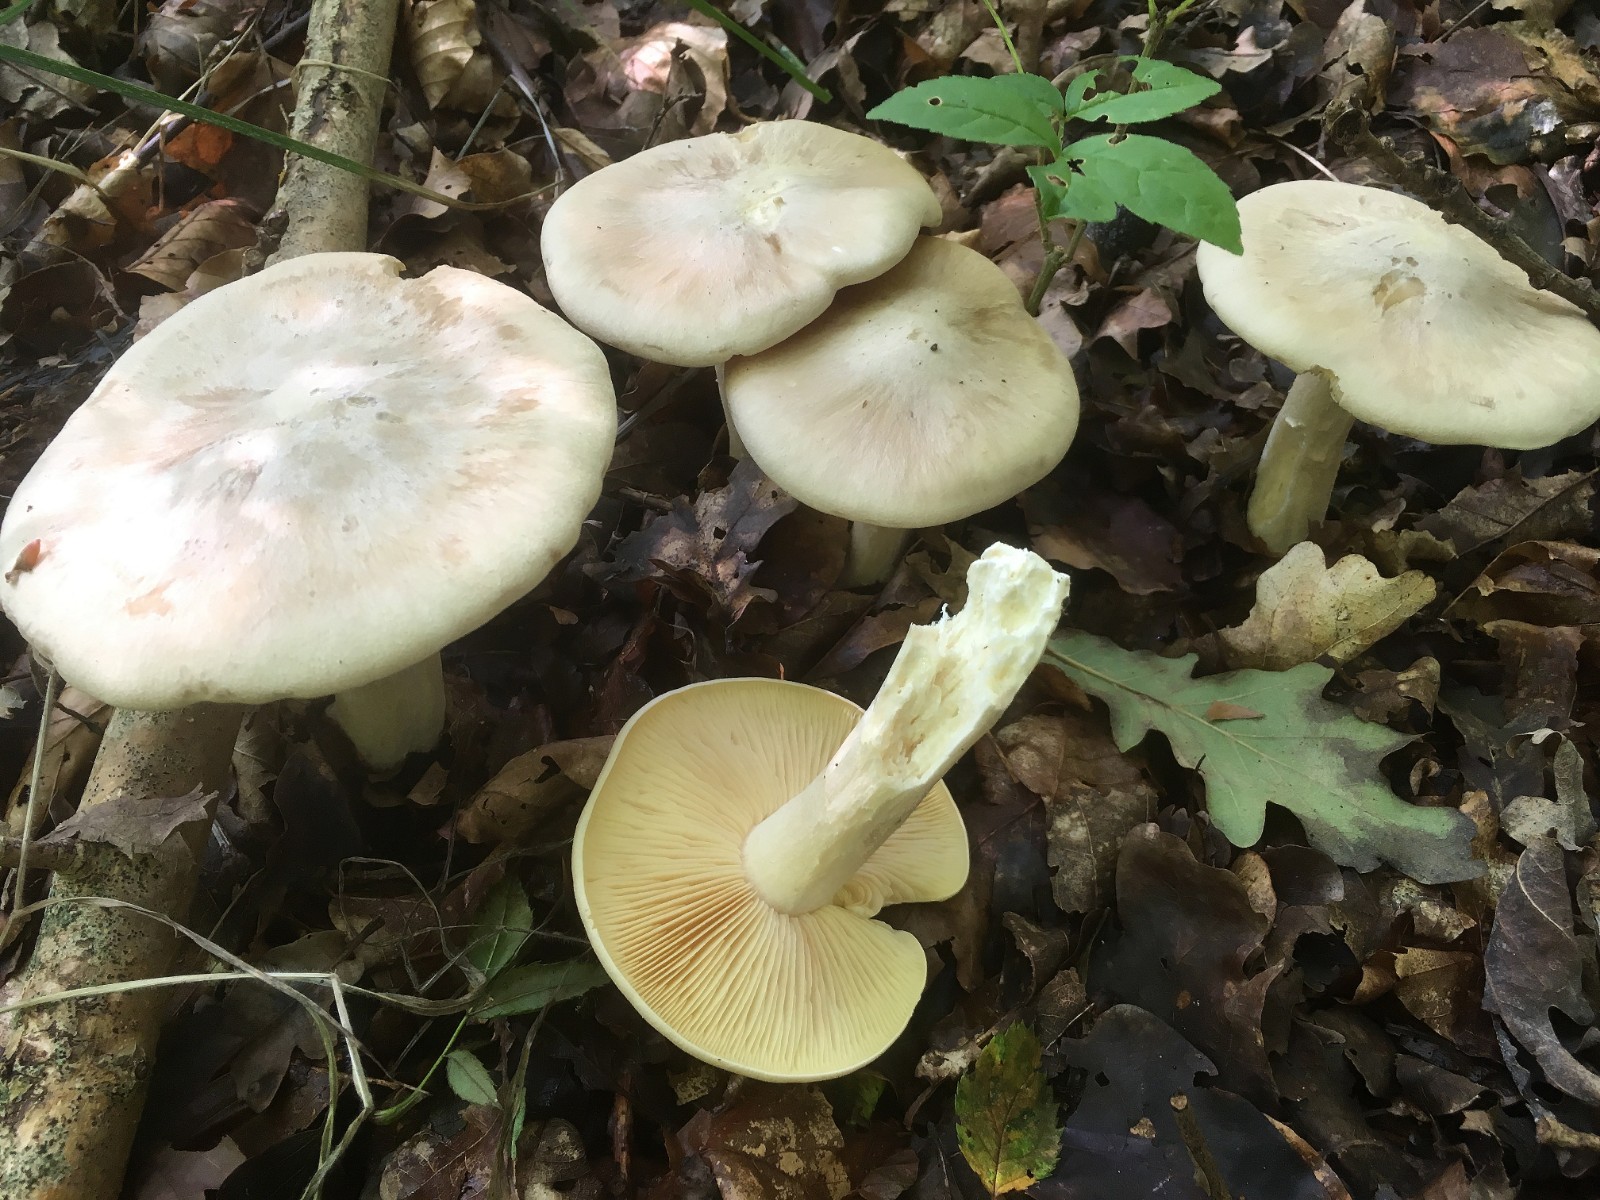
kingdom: Fungi
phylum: Basidiomycota
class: Agaricomycetes
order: Agaricales
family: Entolomataceae
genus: Entoloma
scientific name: Entoloma sinuatum
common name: giftig rødblad
